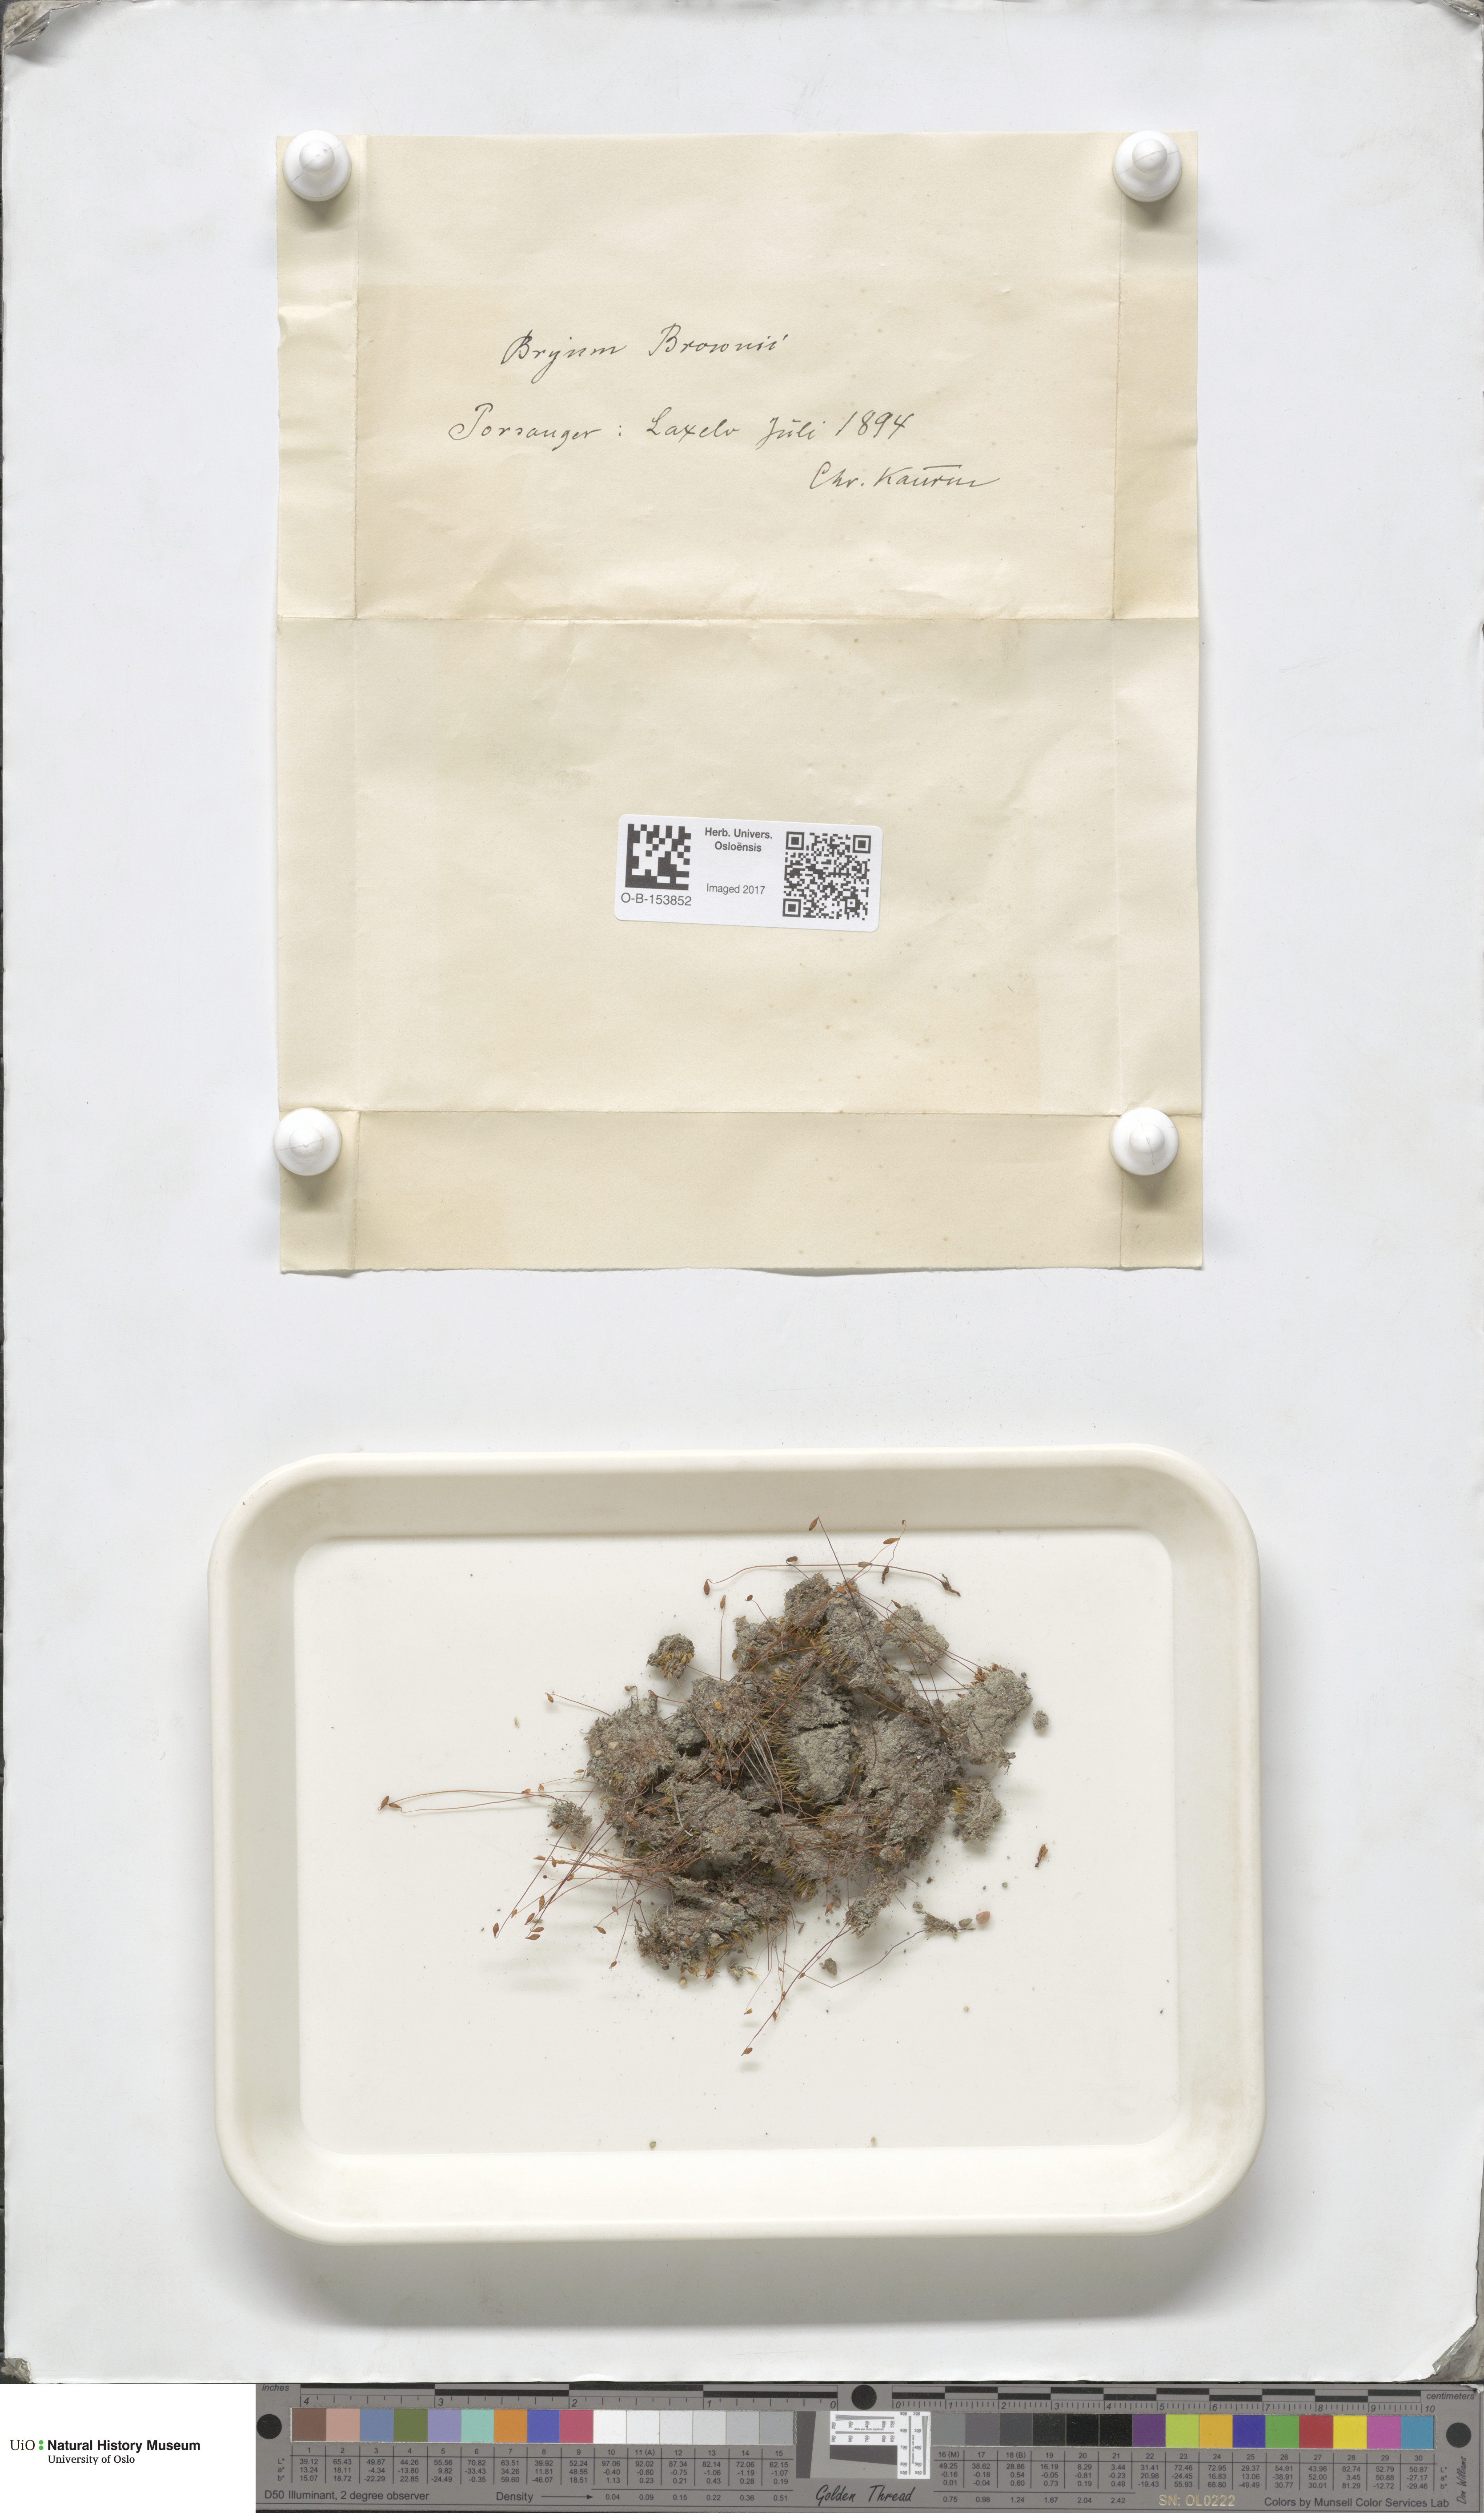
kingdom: Plantae
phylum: Bryophyta
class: Bryopsida
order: Bryales
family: Bryaceae
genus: Ptychostomum
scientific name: Ptychostomum arcticum
